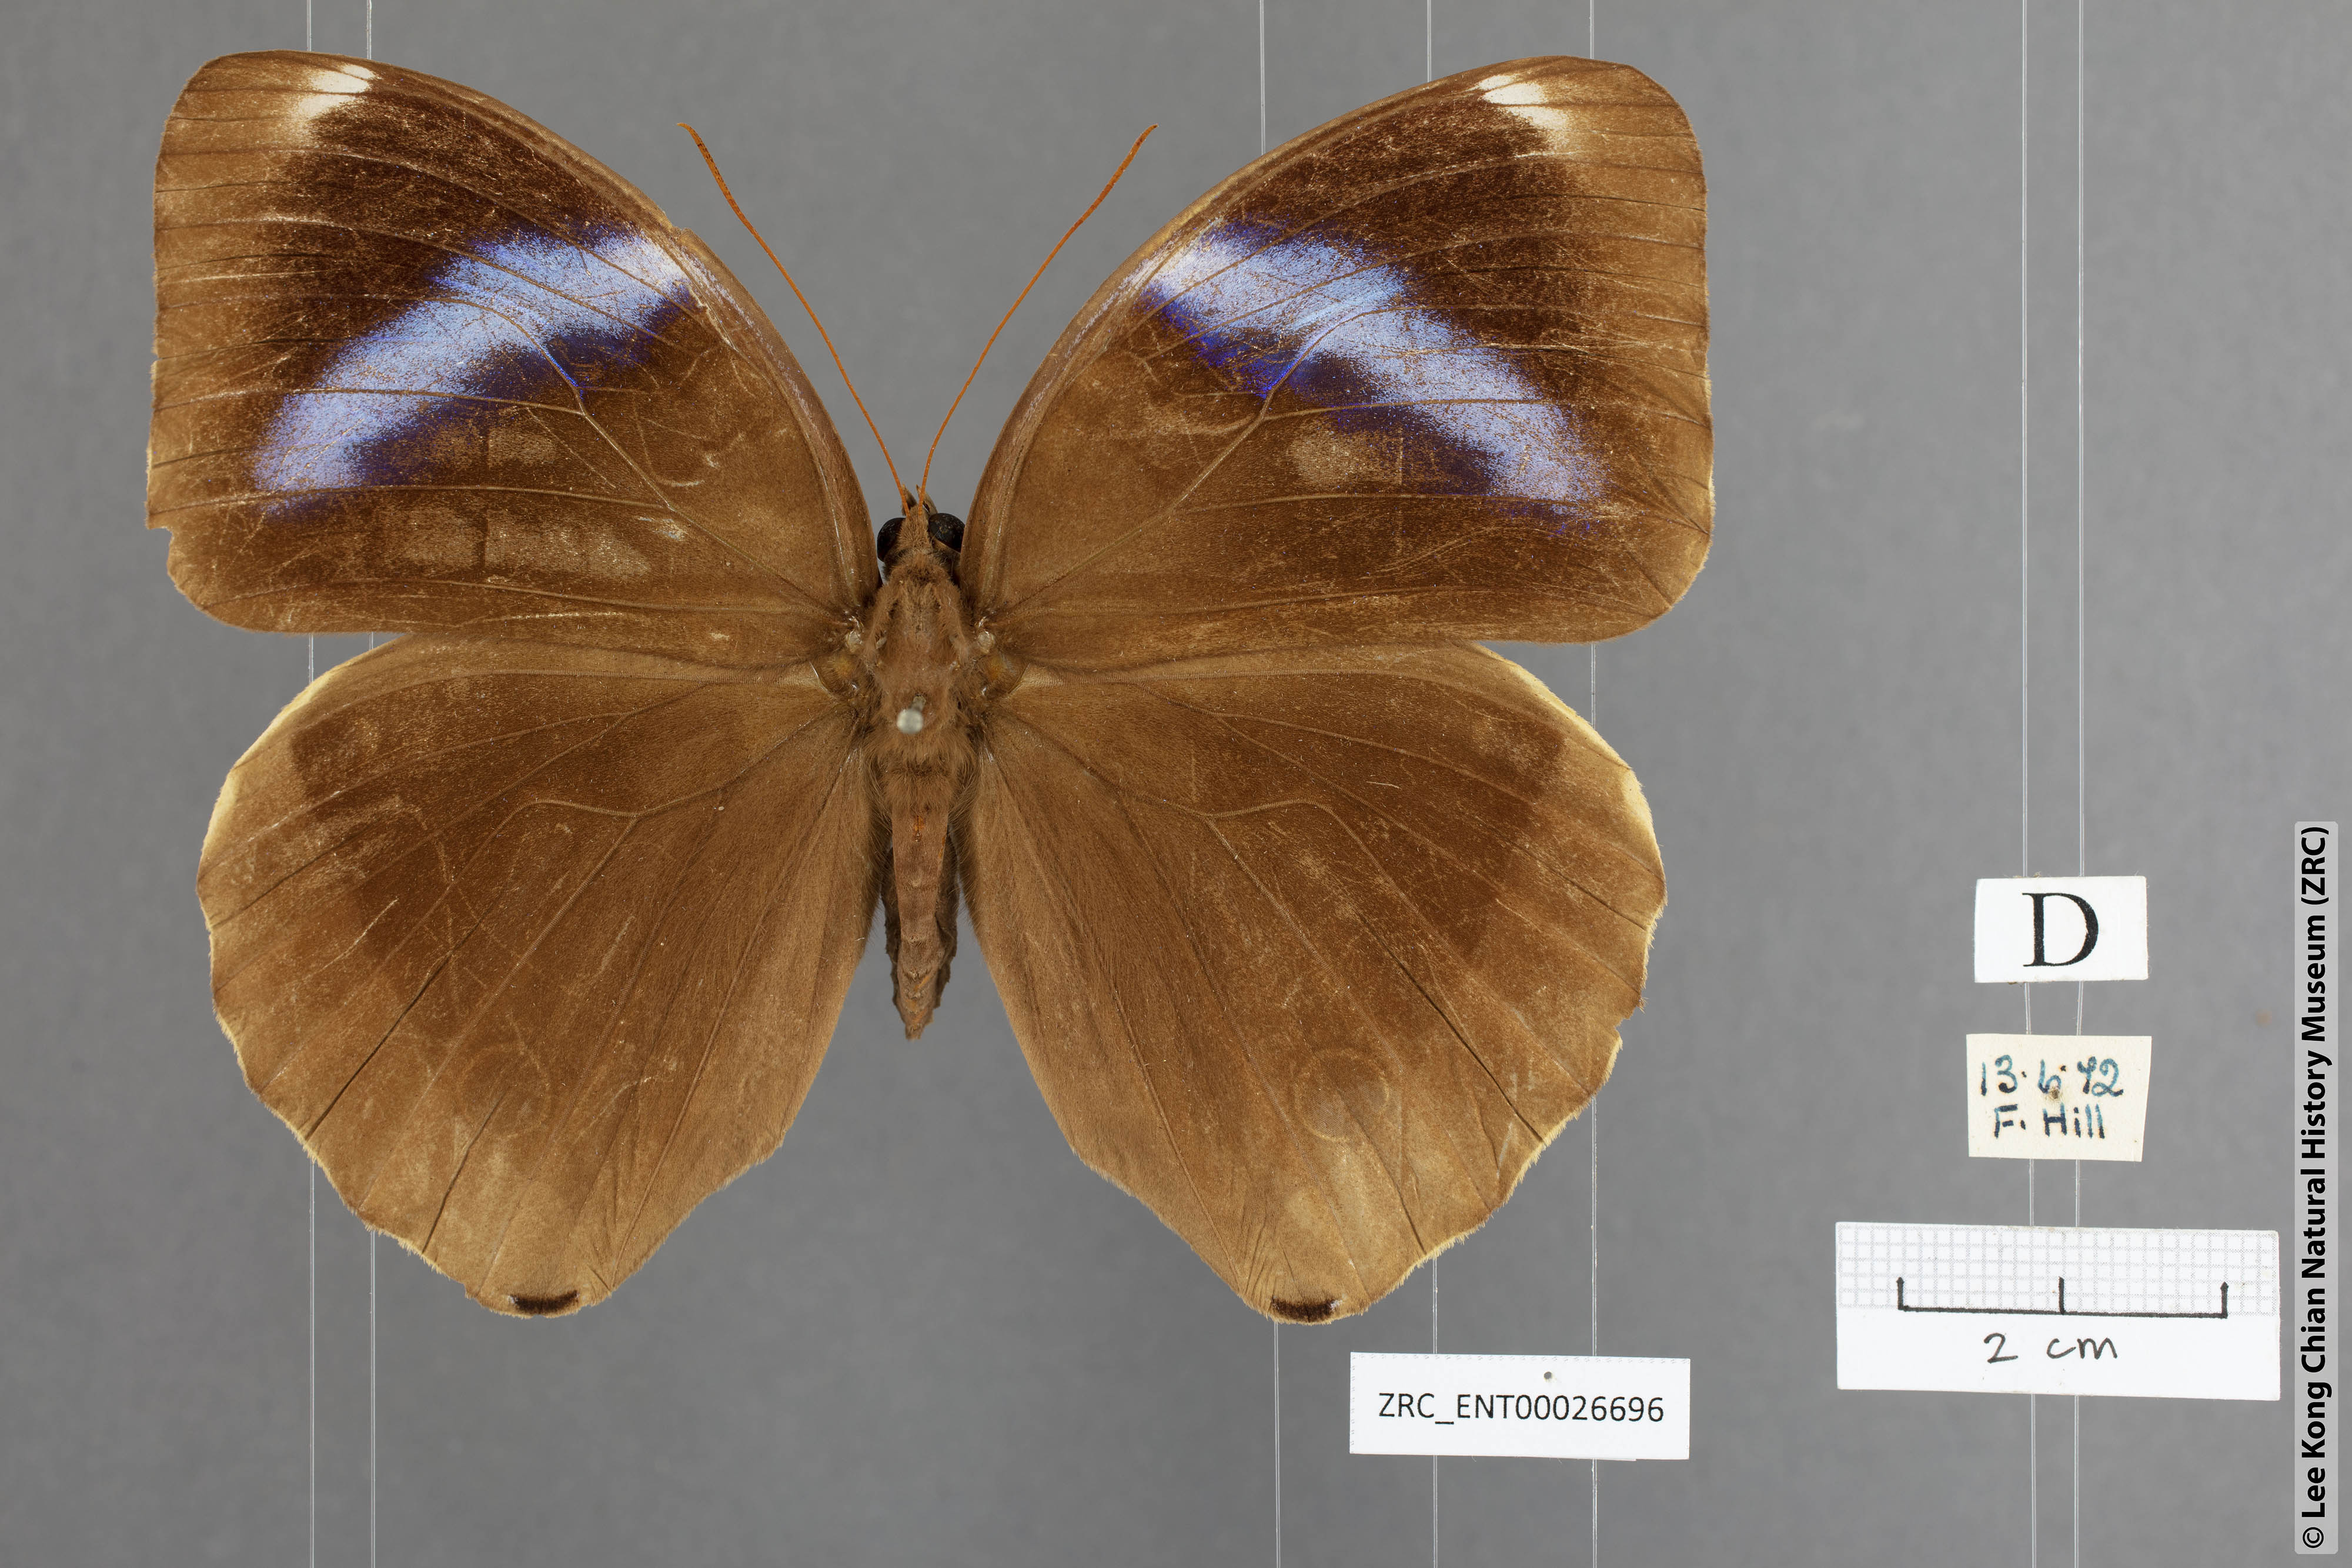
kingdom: Animalia
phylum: Arthropoda
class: Insecta
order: Lepidoptera
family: Nymphalidae
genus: Thaumantis
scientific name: Thaumantis odana
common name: Malayan jungle glory
